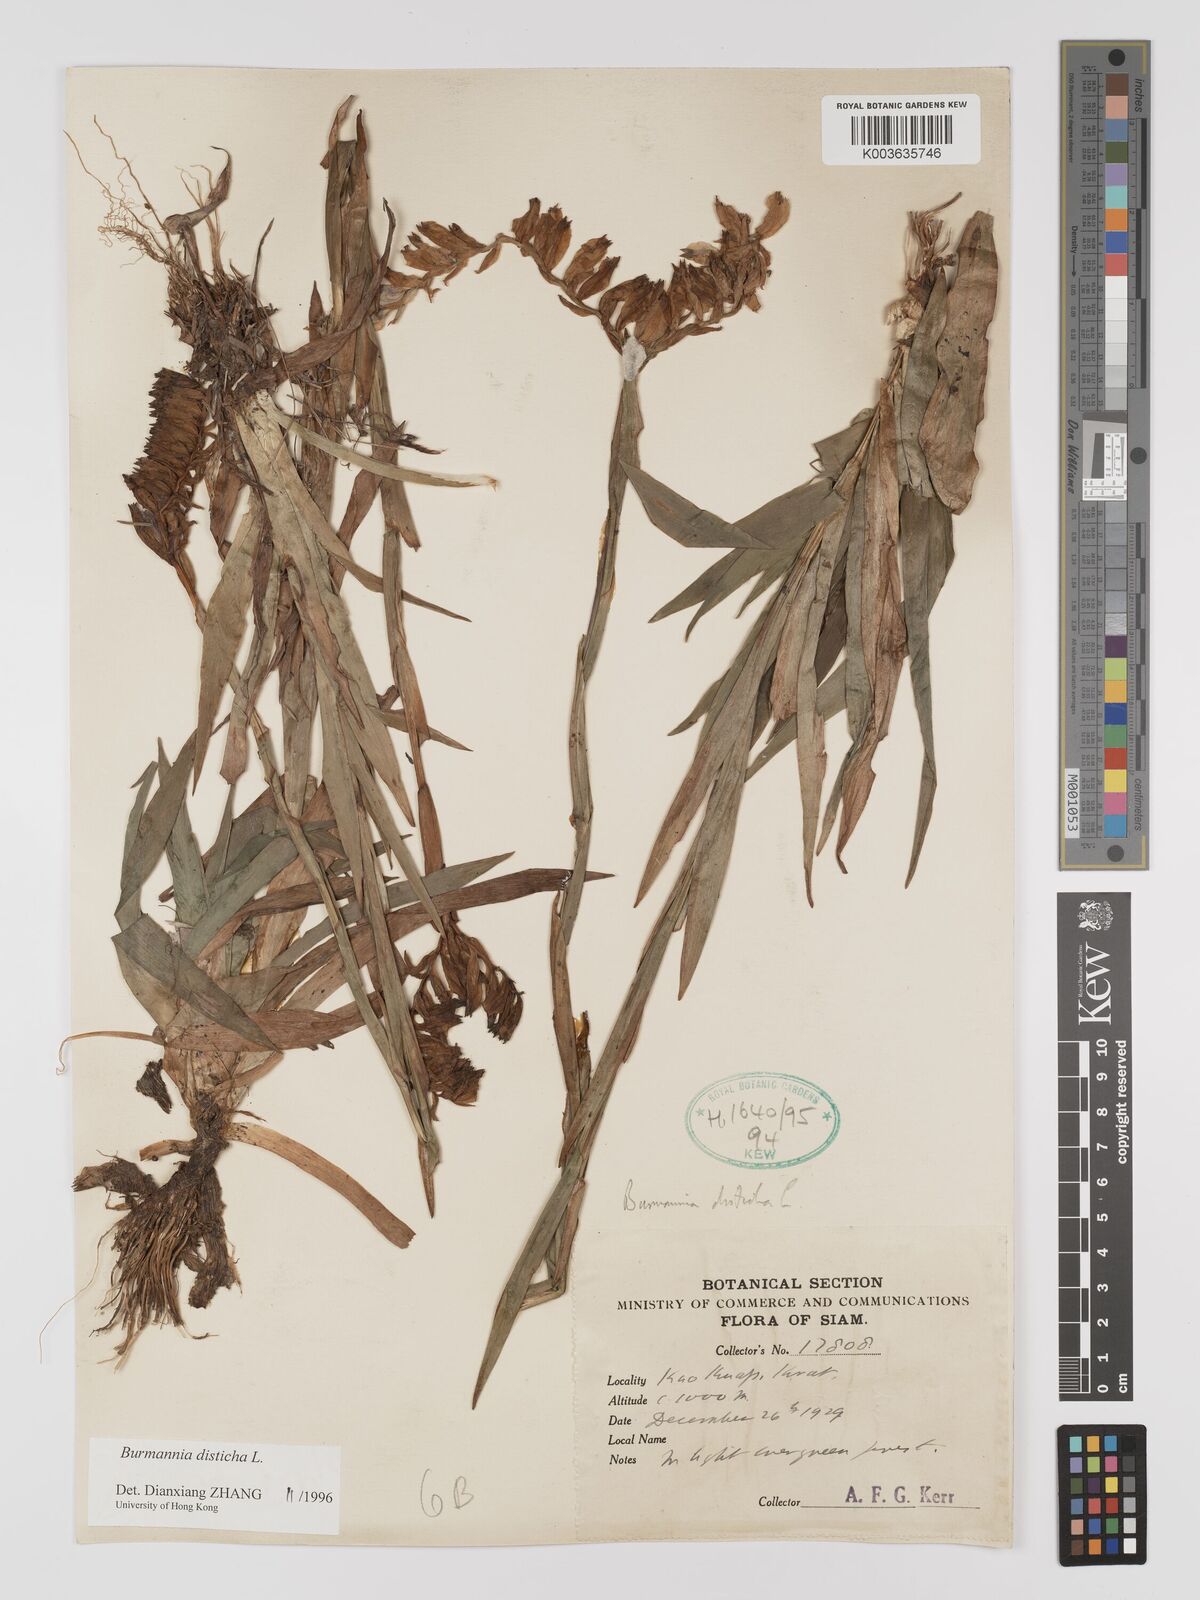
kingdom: Plantae
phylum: Tracheophyta
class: Liliopsida
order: Dioscoreales
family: Burmanniaceae
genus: Burmannia
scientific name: Burmannia disticha
